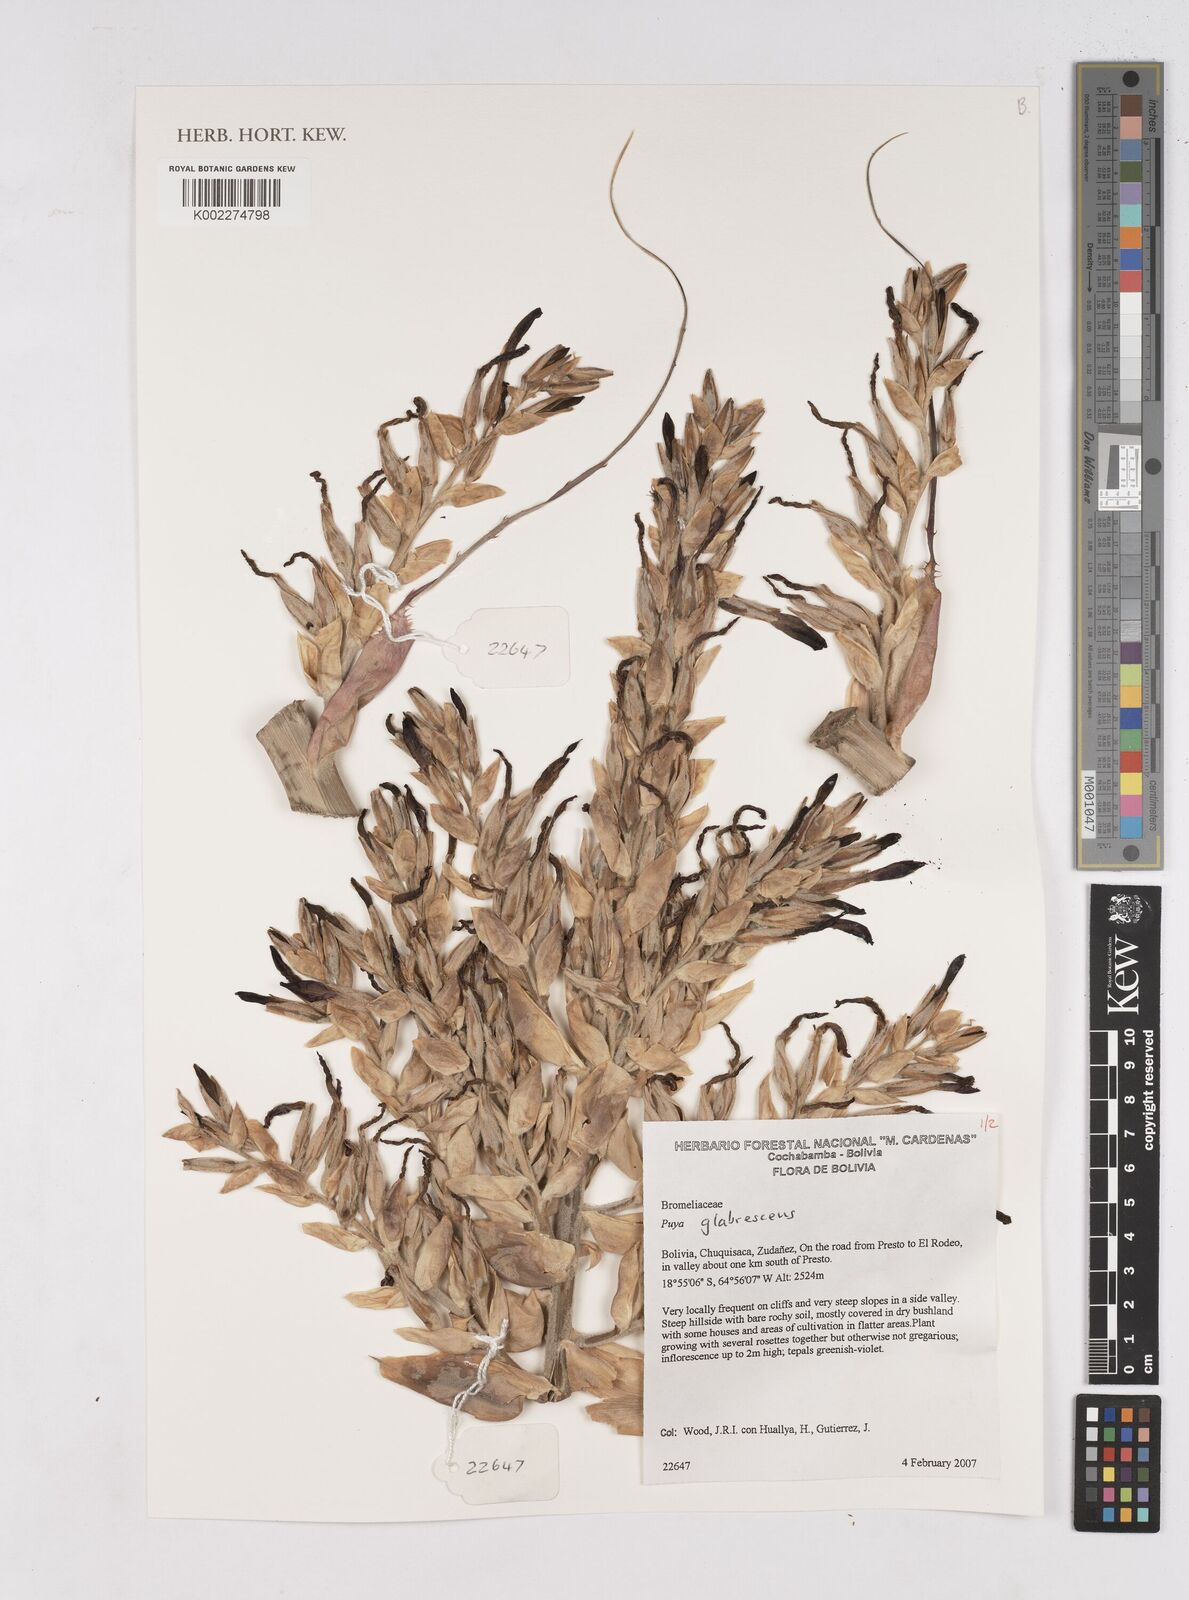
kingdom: Plantae
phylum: Tracheophyta
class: Liliopsida
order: Poales
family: Bromeliaceae
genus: Puya
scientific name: Puya glabrescens
